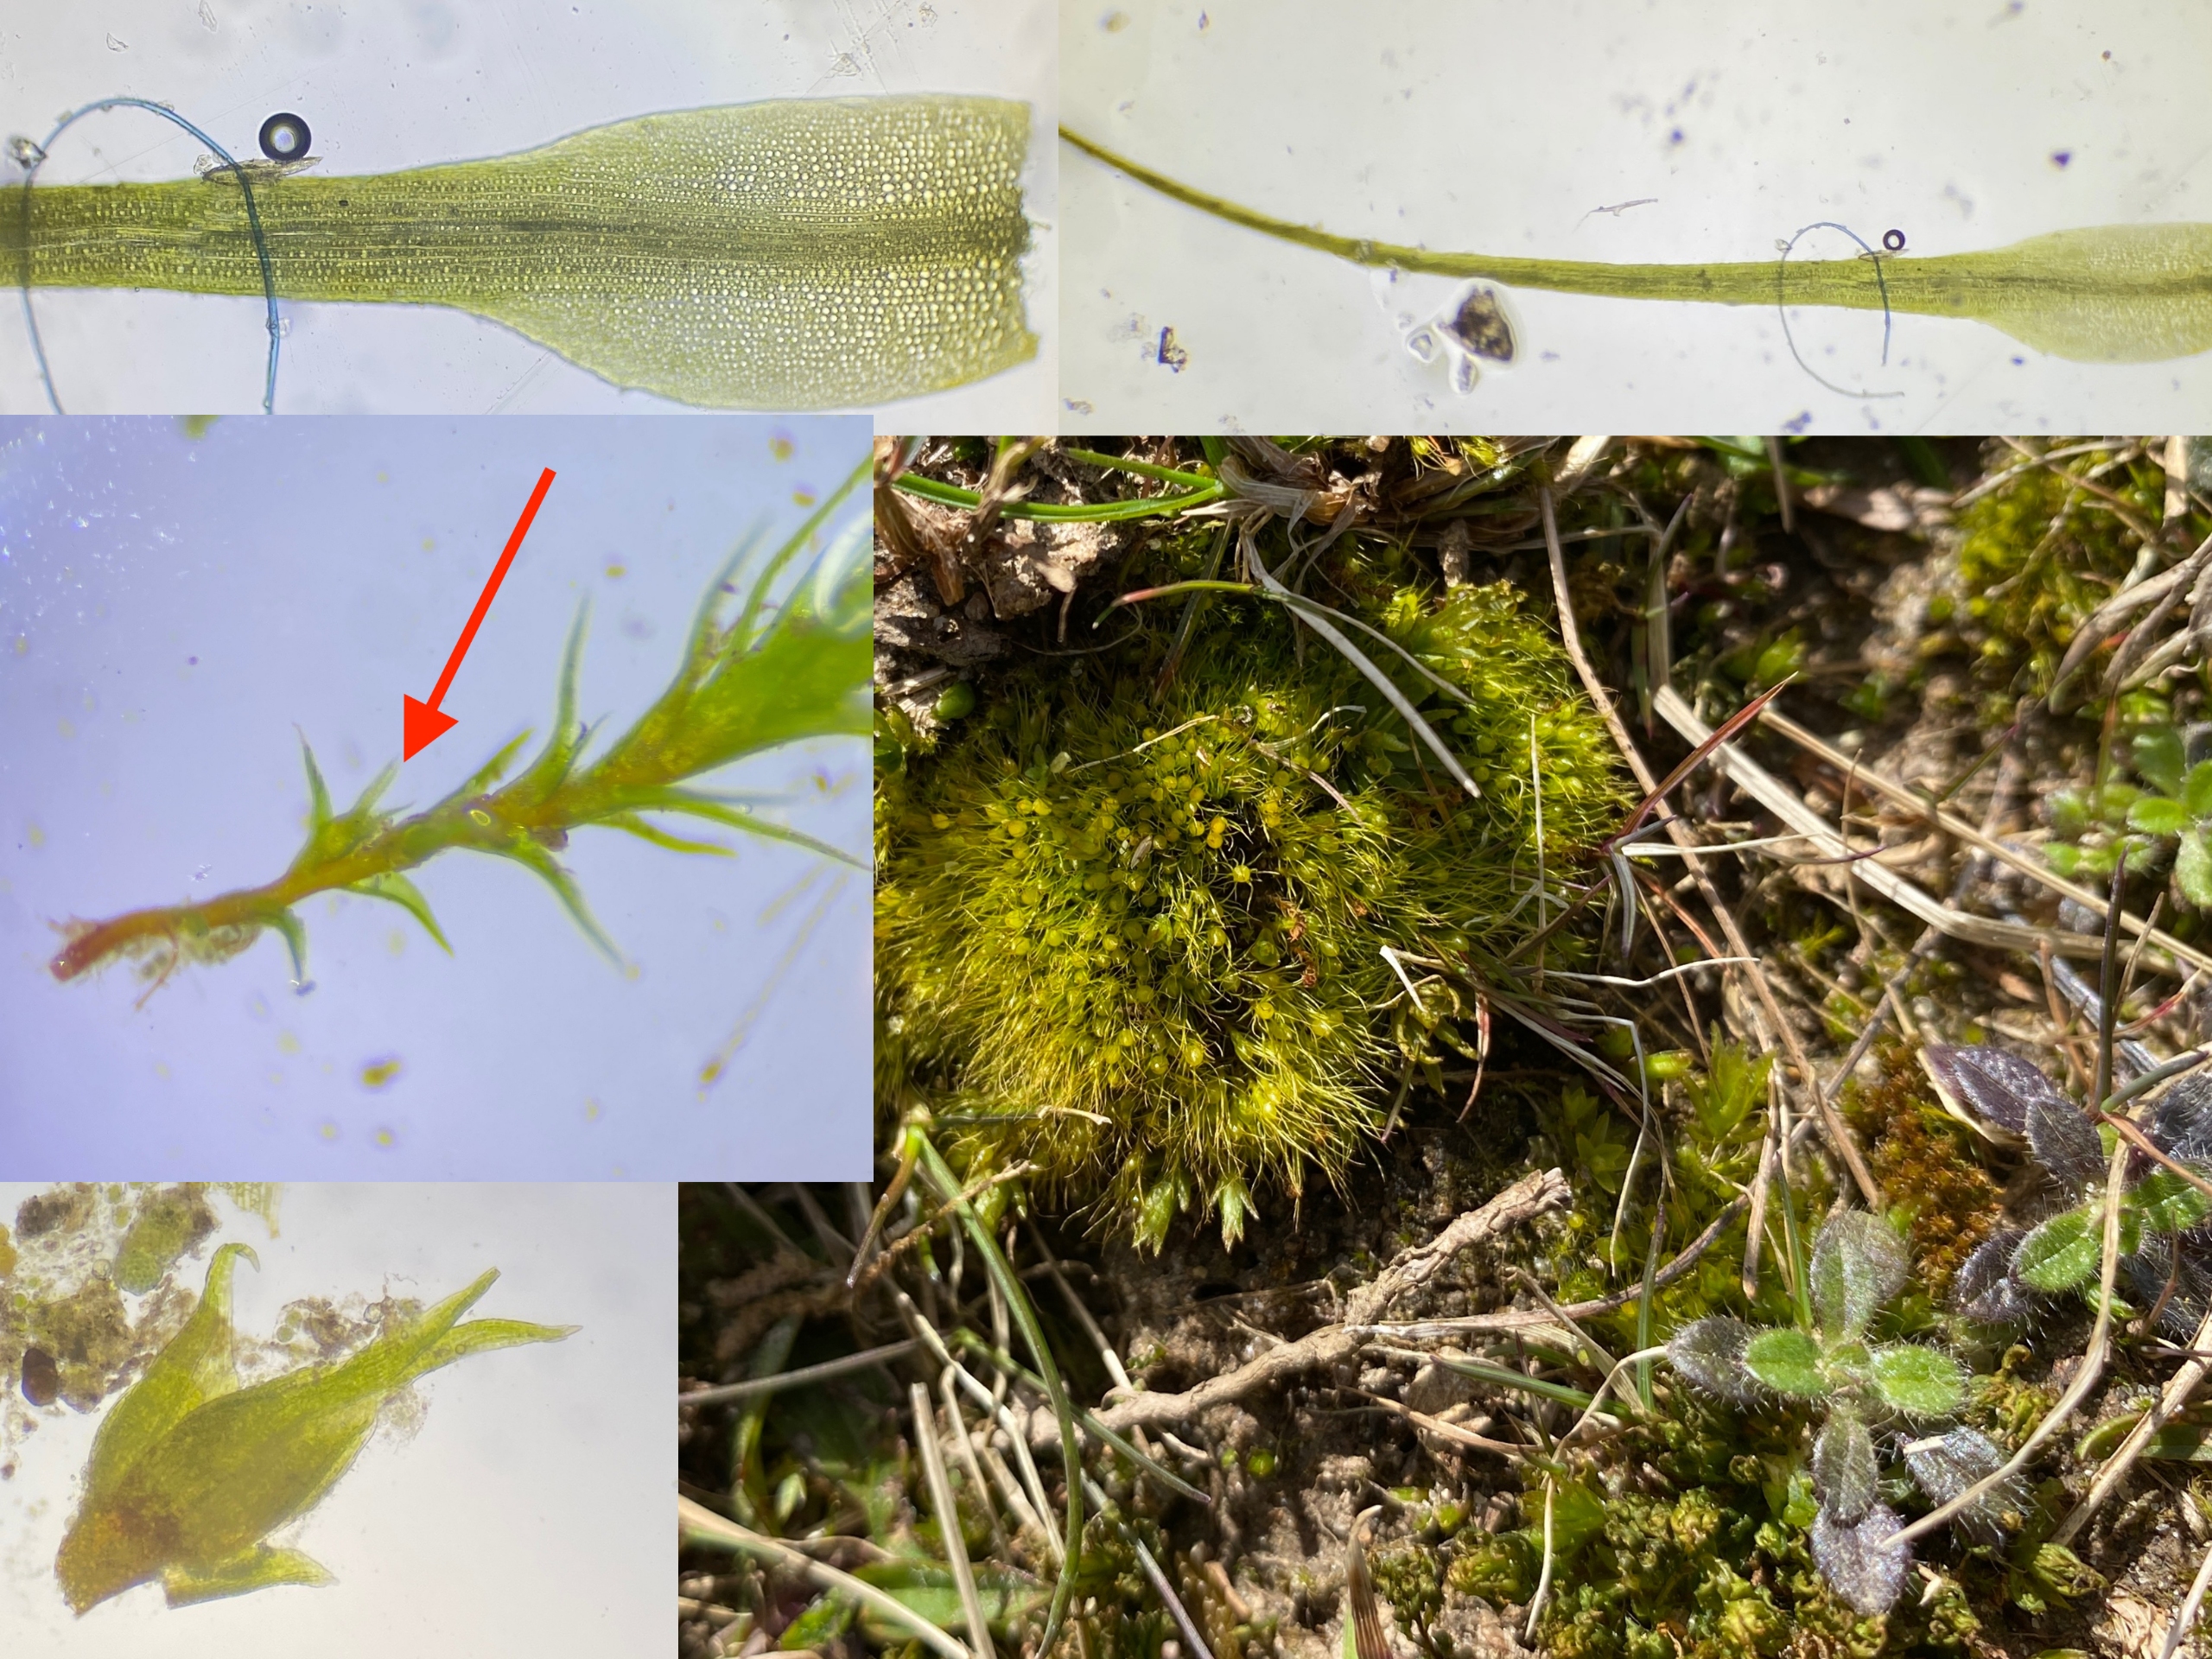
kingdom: Plantae
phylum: Bryophyta
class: Bryopsida
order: Dicranales
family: Ditrichaceae
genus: Pleuridium
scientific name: Pleuridium subulatum
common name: Kortstilket sylbladsmos
